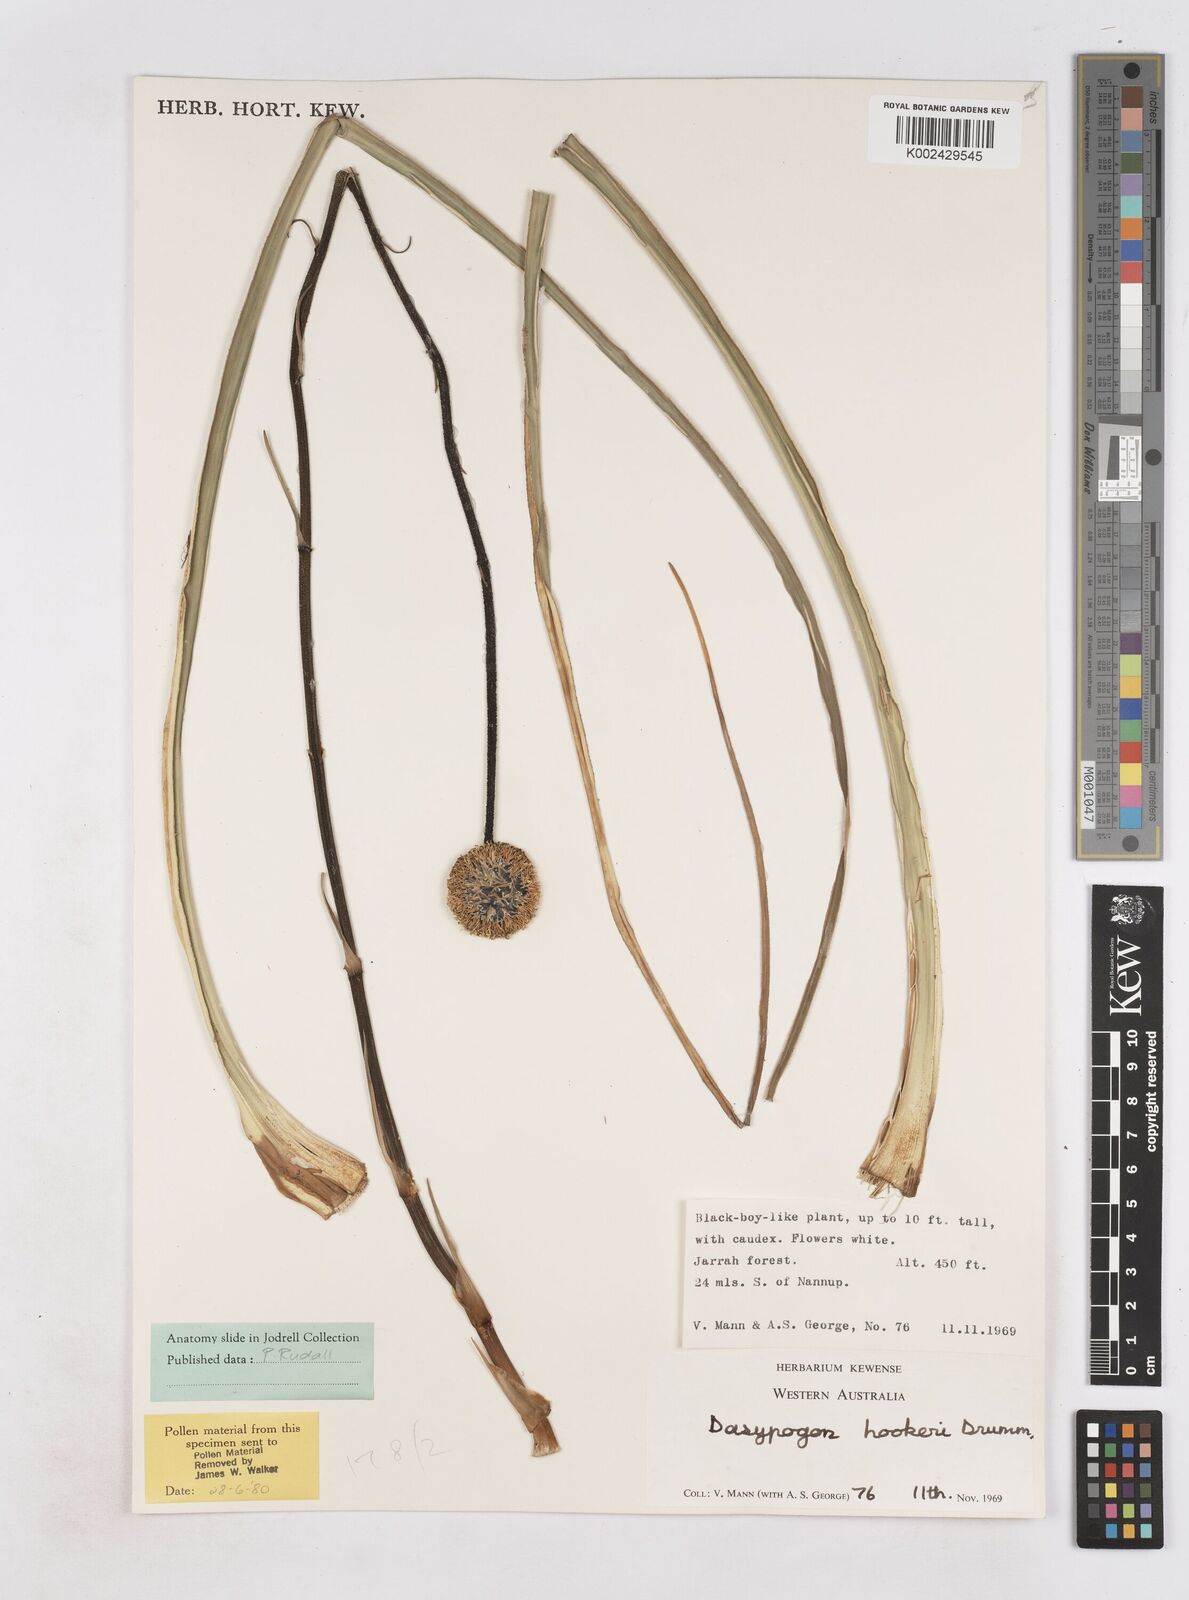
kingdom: Plantae
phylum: Tracheophyta
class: Liliopsida
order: Arecales
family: Dasypogonaceae
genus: Dasypogon
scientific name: Dasypogon hookeri
